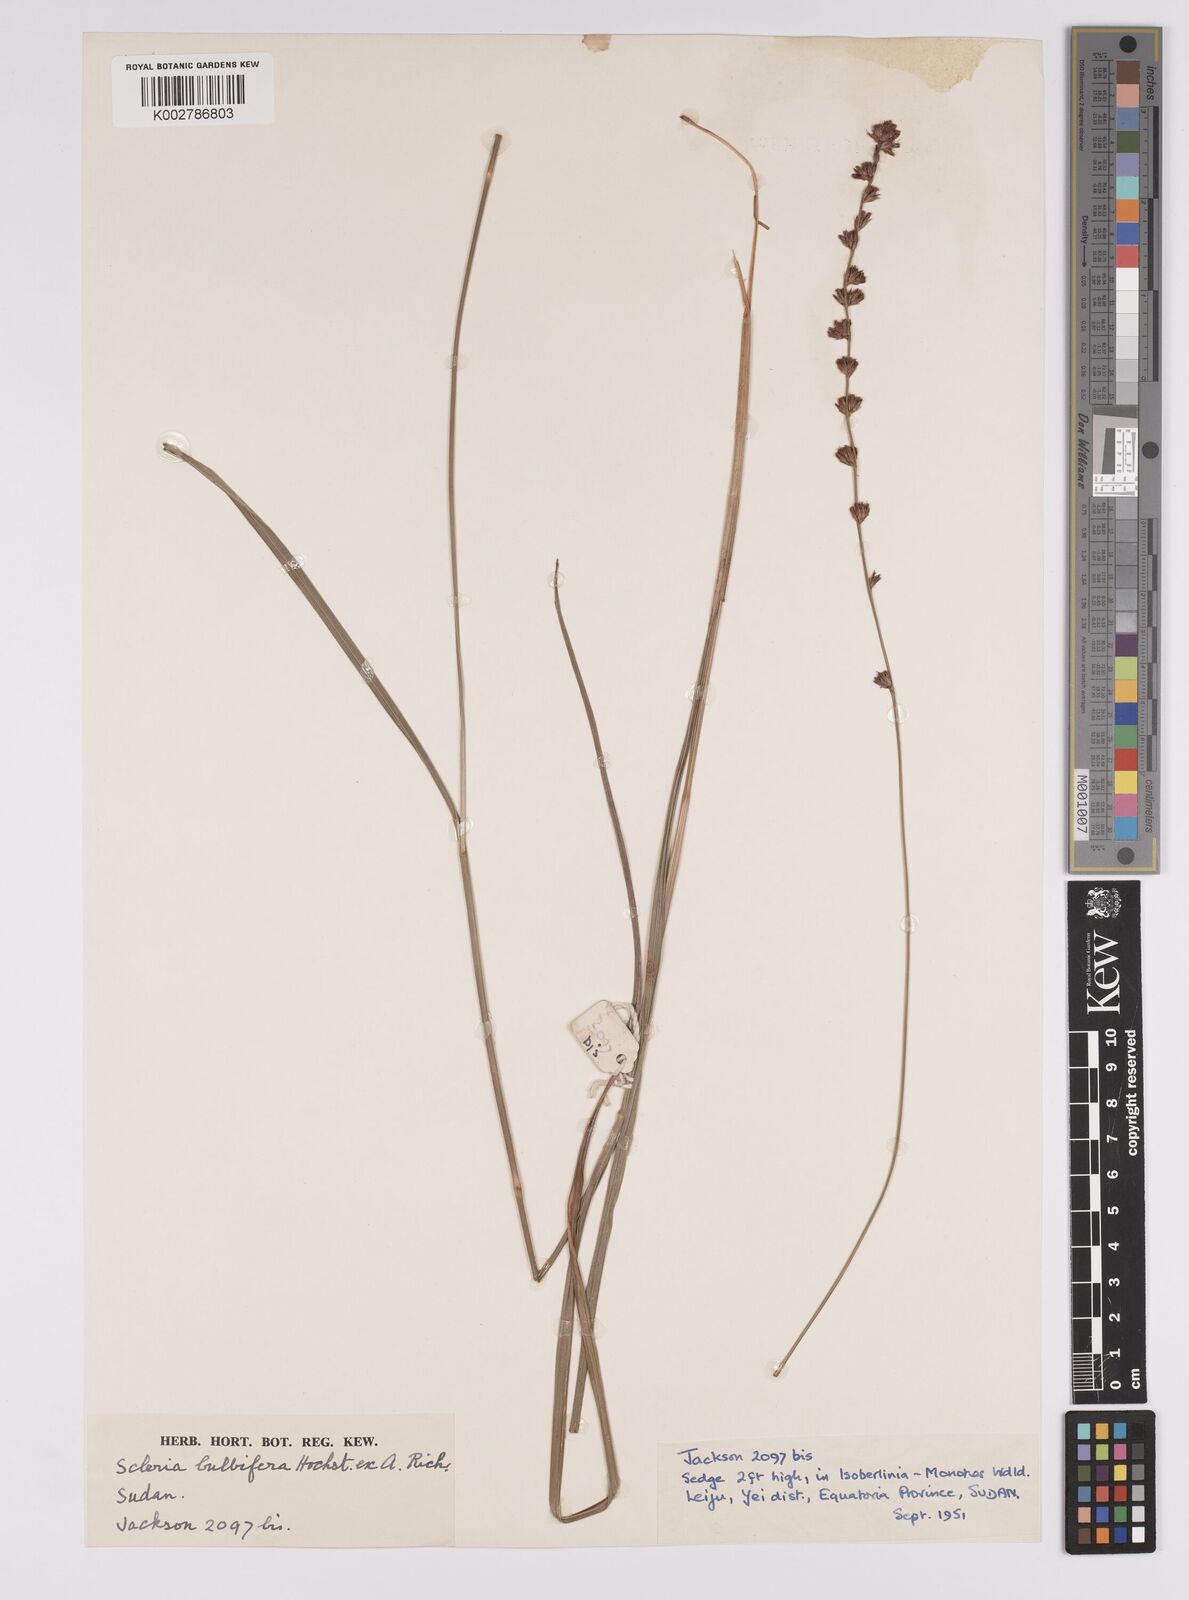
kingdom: Plantae
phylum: Tracheophyta
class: Liliopsida
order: Poales
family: Cyperaceae
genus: Scleria
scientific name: Scleria bulbifera
